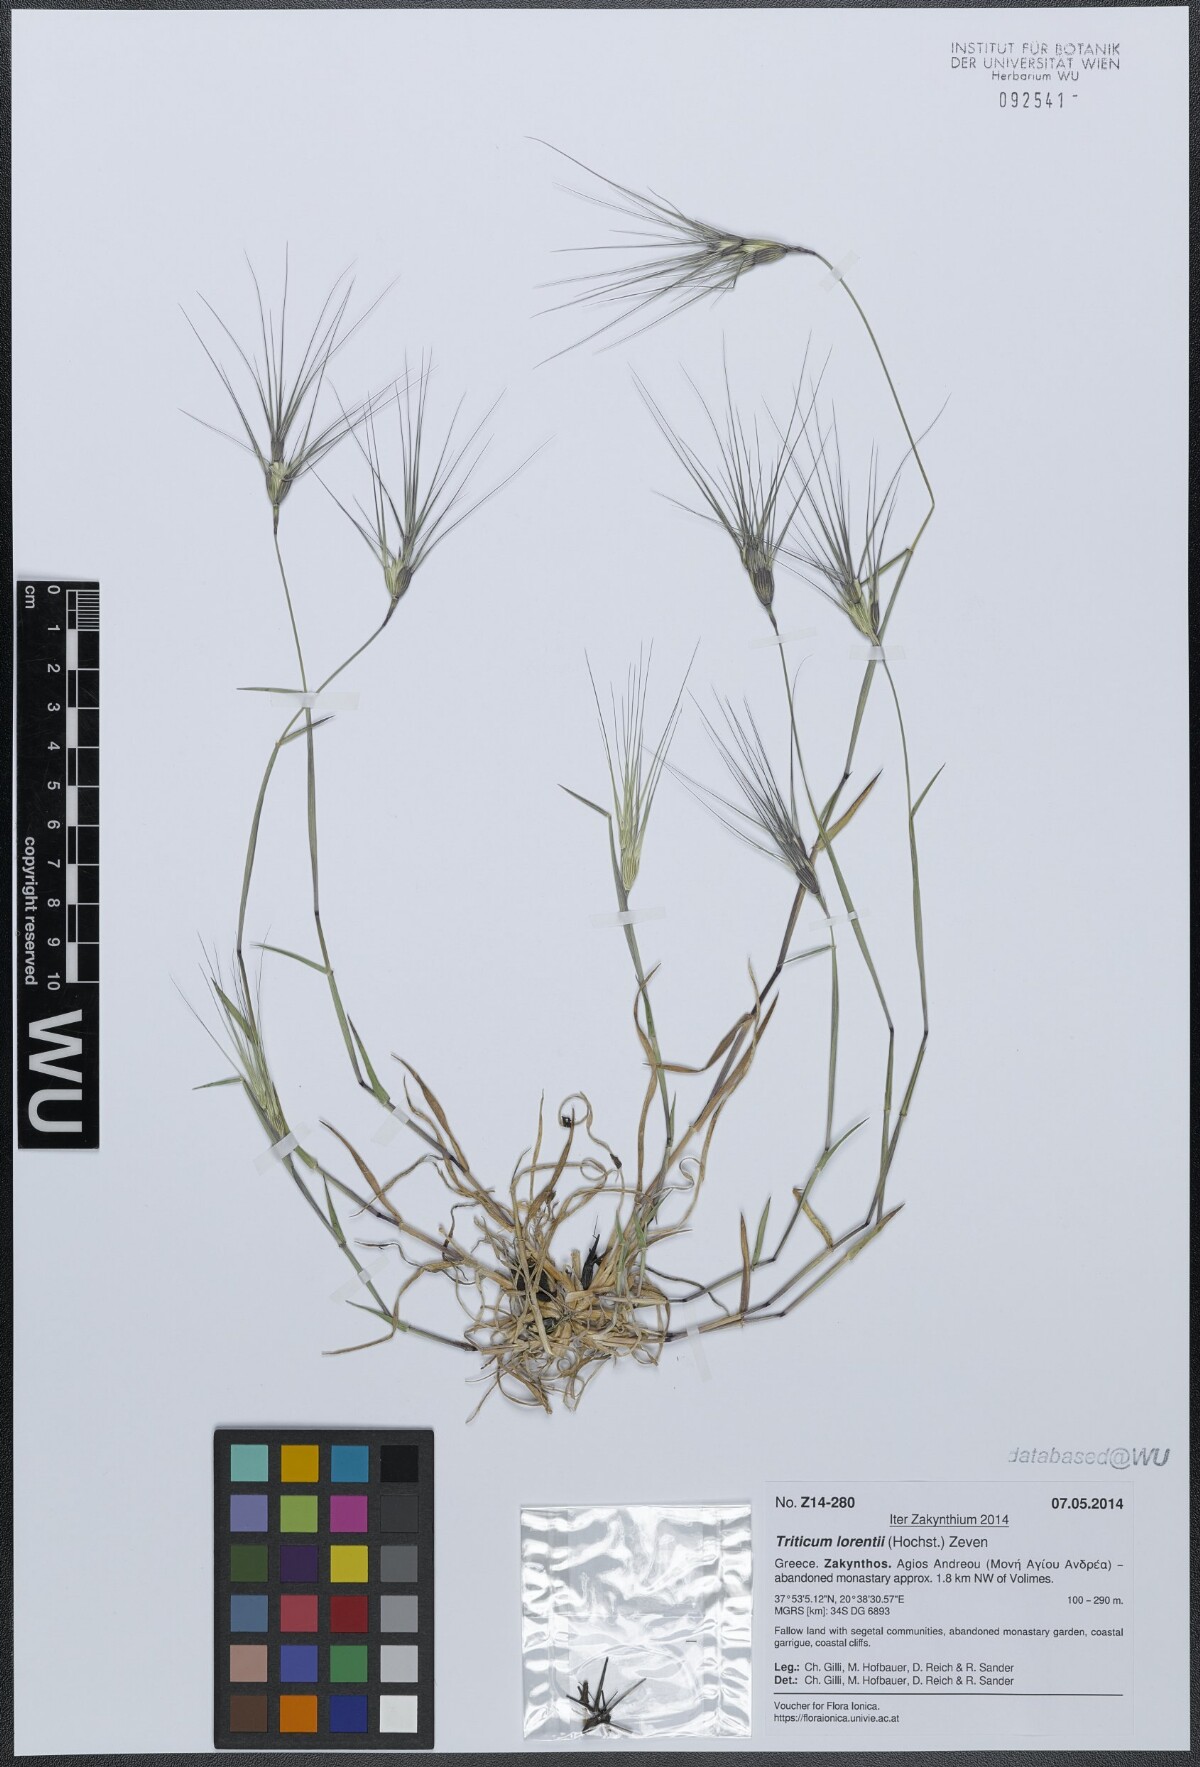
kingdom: Plantae
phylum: Tracheophyta
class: Liliopsida
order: Poales
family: Poaceae
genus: Aegilops
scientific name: Aegilops biuncialis
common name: Mediterranean aegilops
